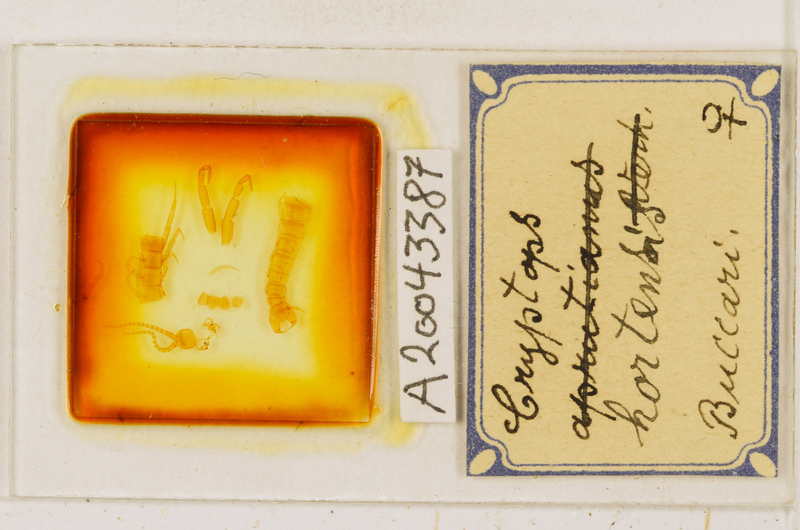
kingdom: Animalia
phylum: Arthropoda
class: Chilopoda
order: Scolopendromorpha
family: Cryptopidae
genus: Cryptops
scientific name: Cryptops hortensis
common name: Centipede
